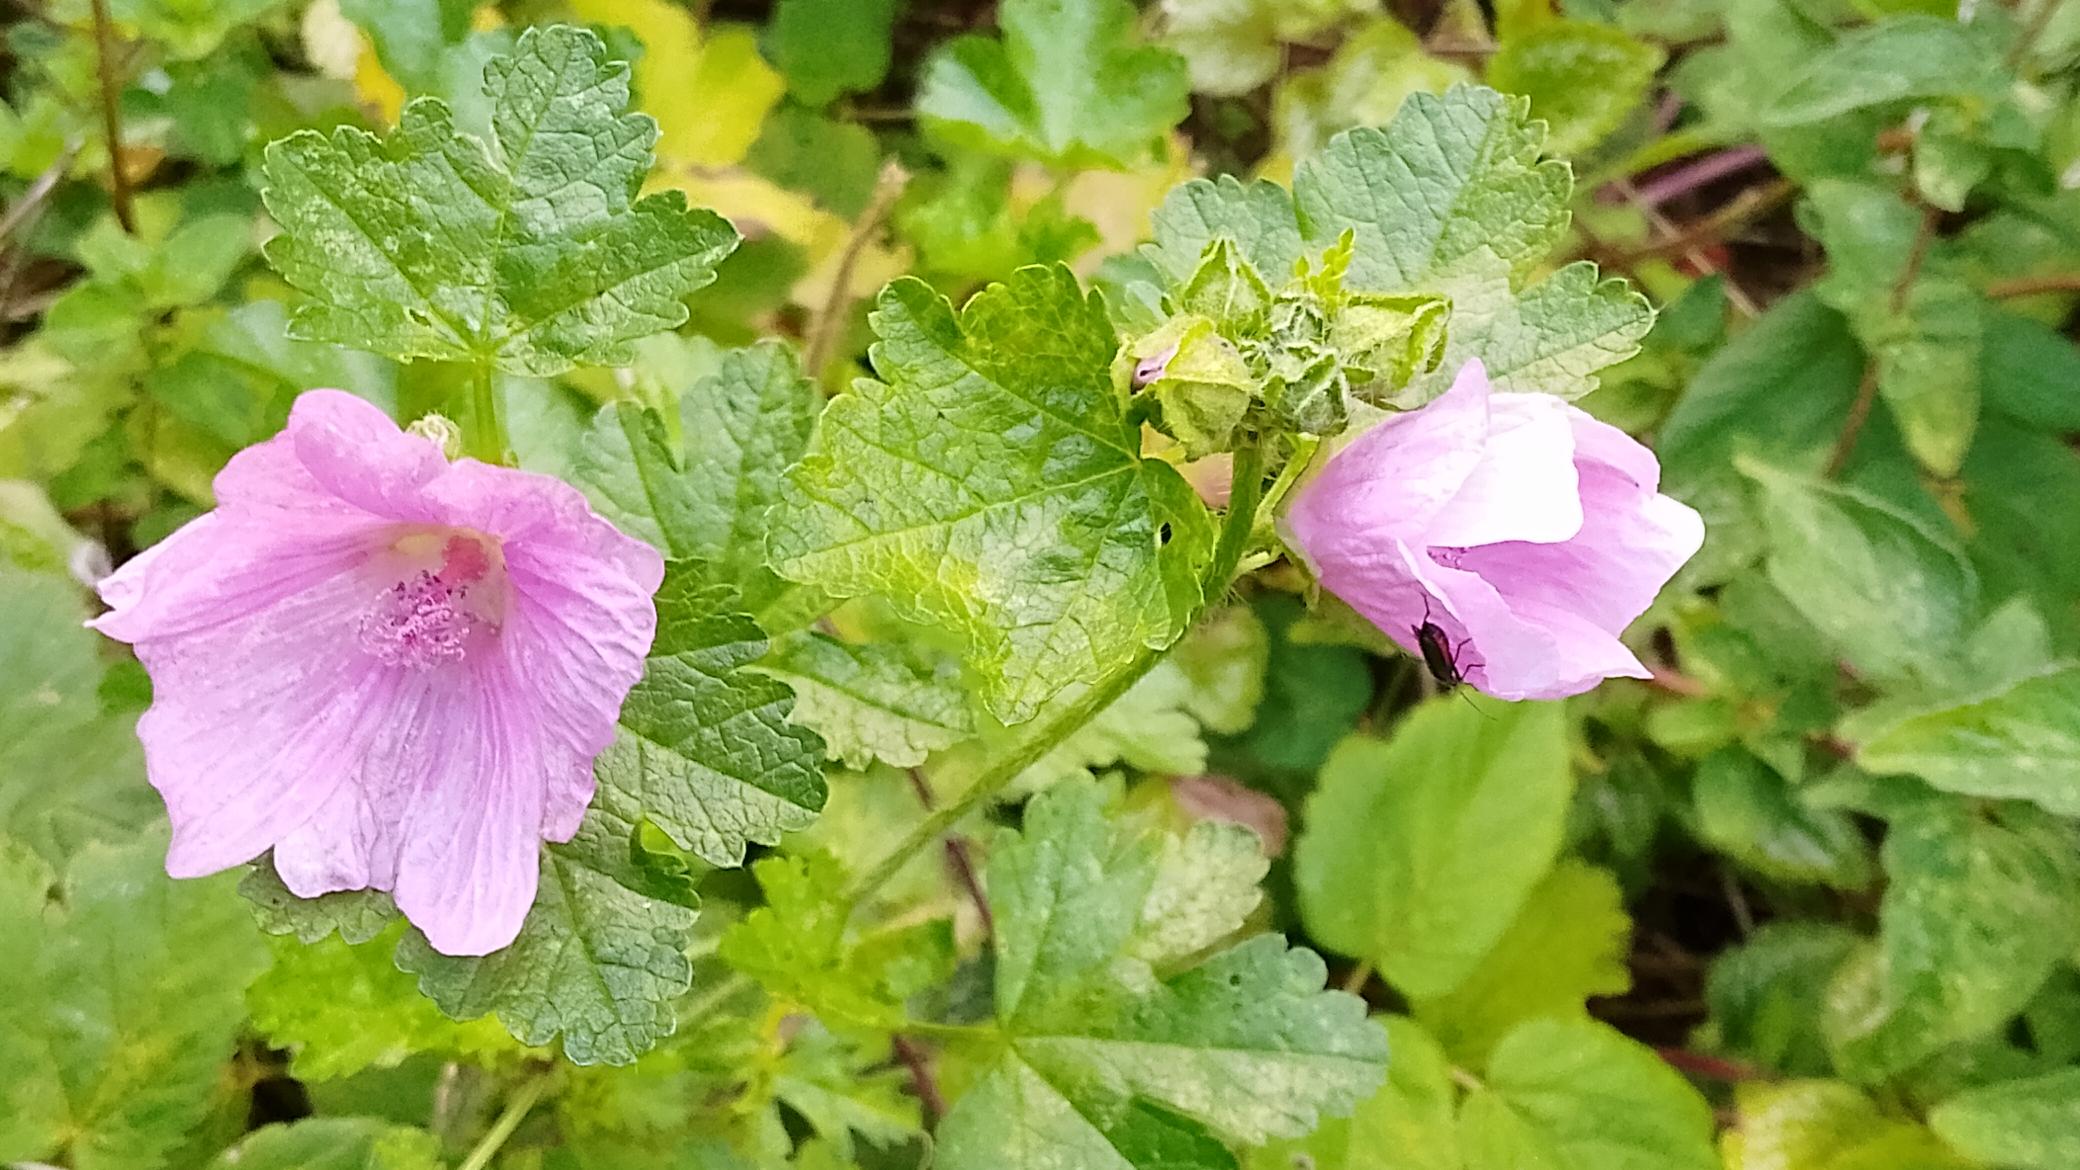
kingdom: Plantae
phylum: Tracheophyta
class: Magnoliopsida
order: Malvales
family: Malvaceae
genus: Malva
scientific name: Malva moschata
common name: Moskus-katost
